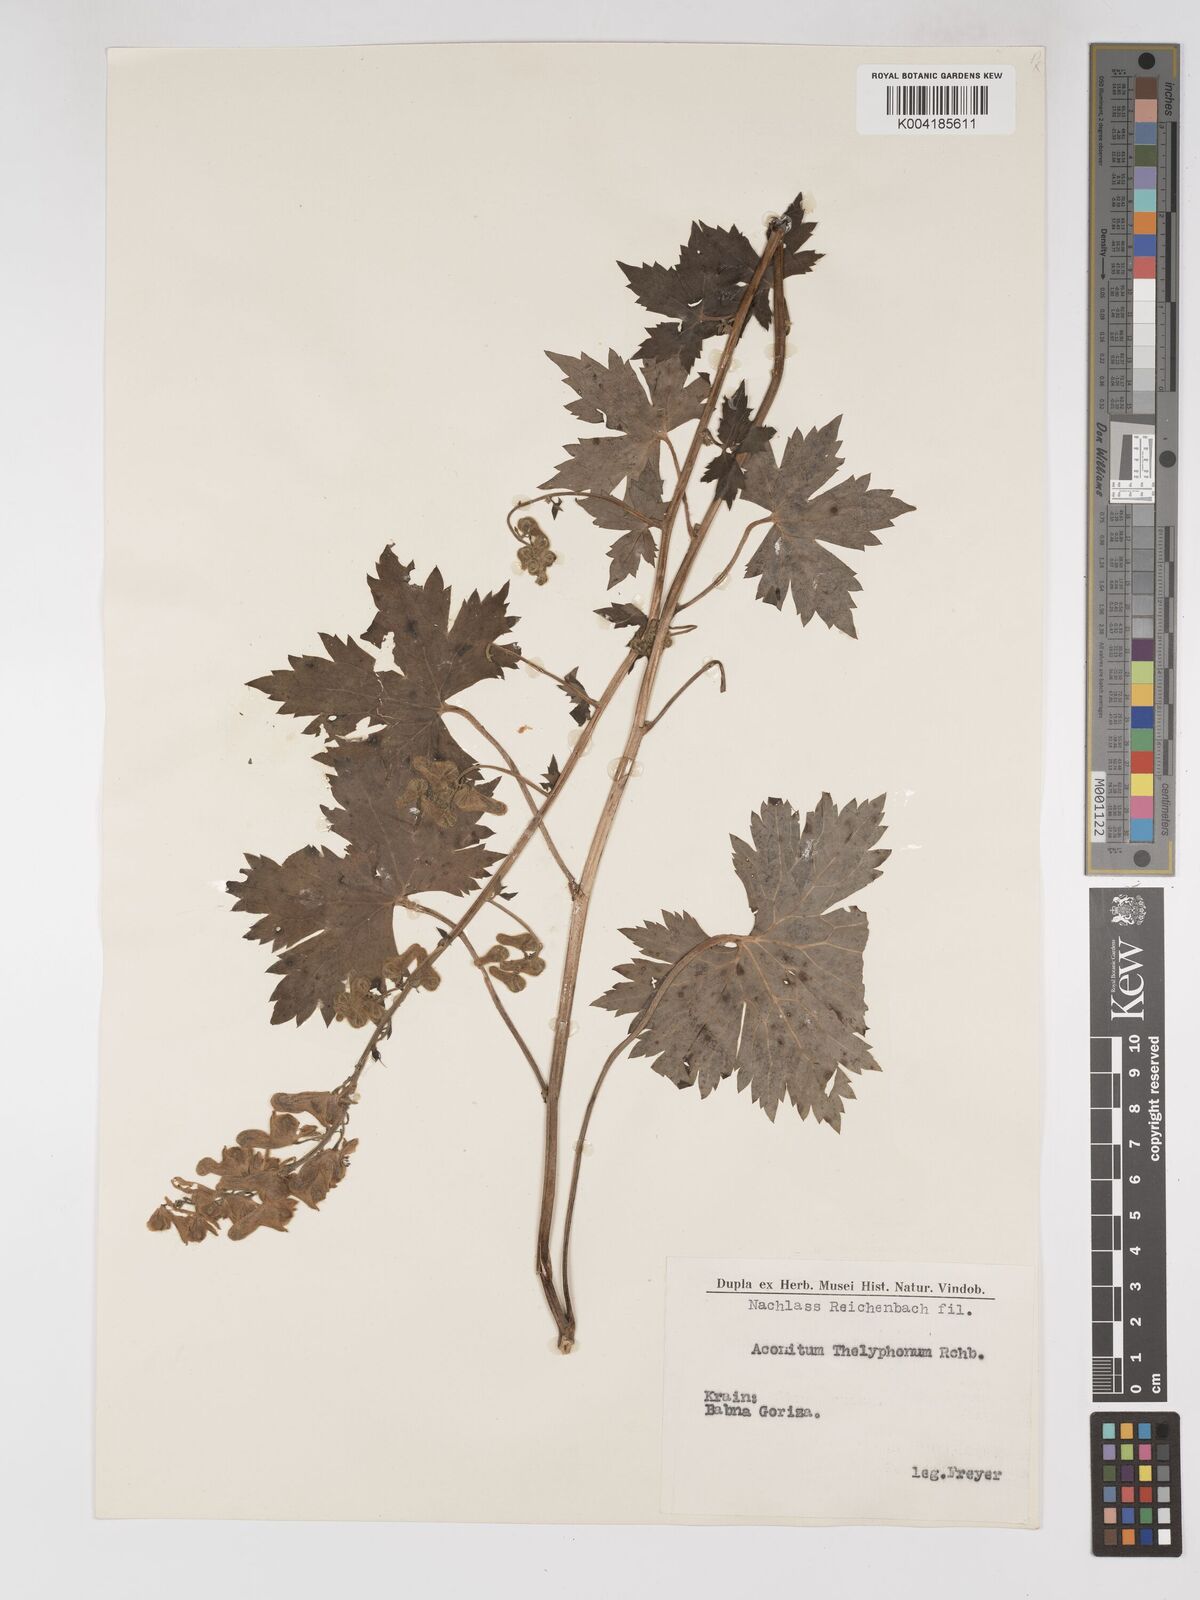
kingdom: Plantae
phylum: Tracheophyta
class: Magnoliopsida
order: Ranunculales
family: Ranunculaceae
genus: Aconitum
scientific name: Aconitum lycoctonum
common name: Wolf's-bane
